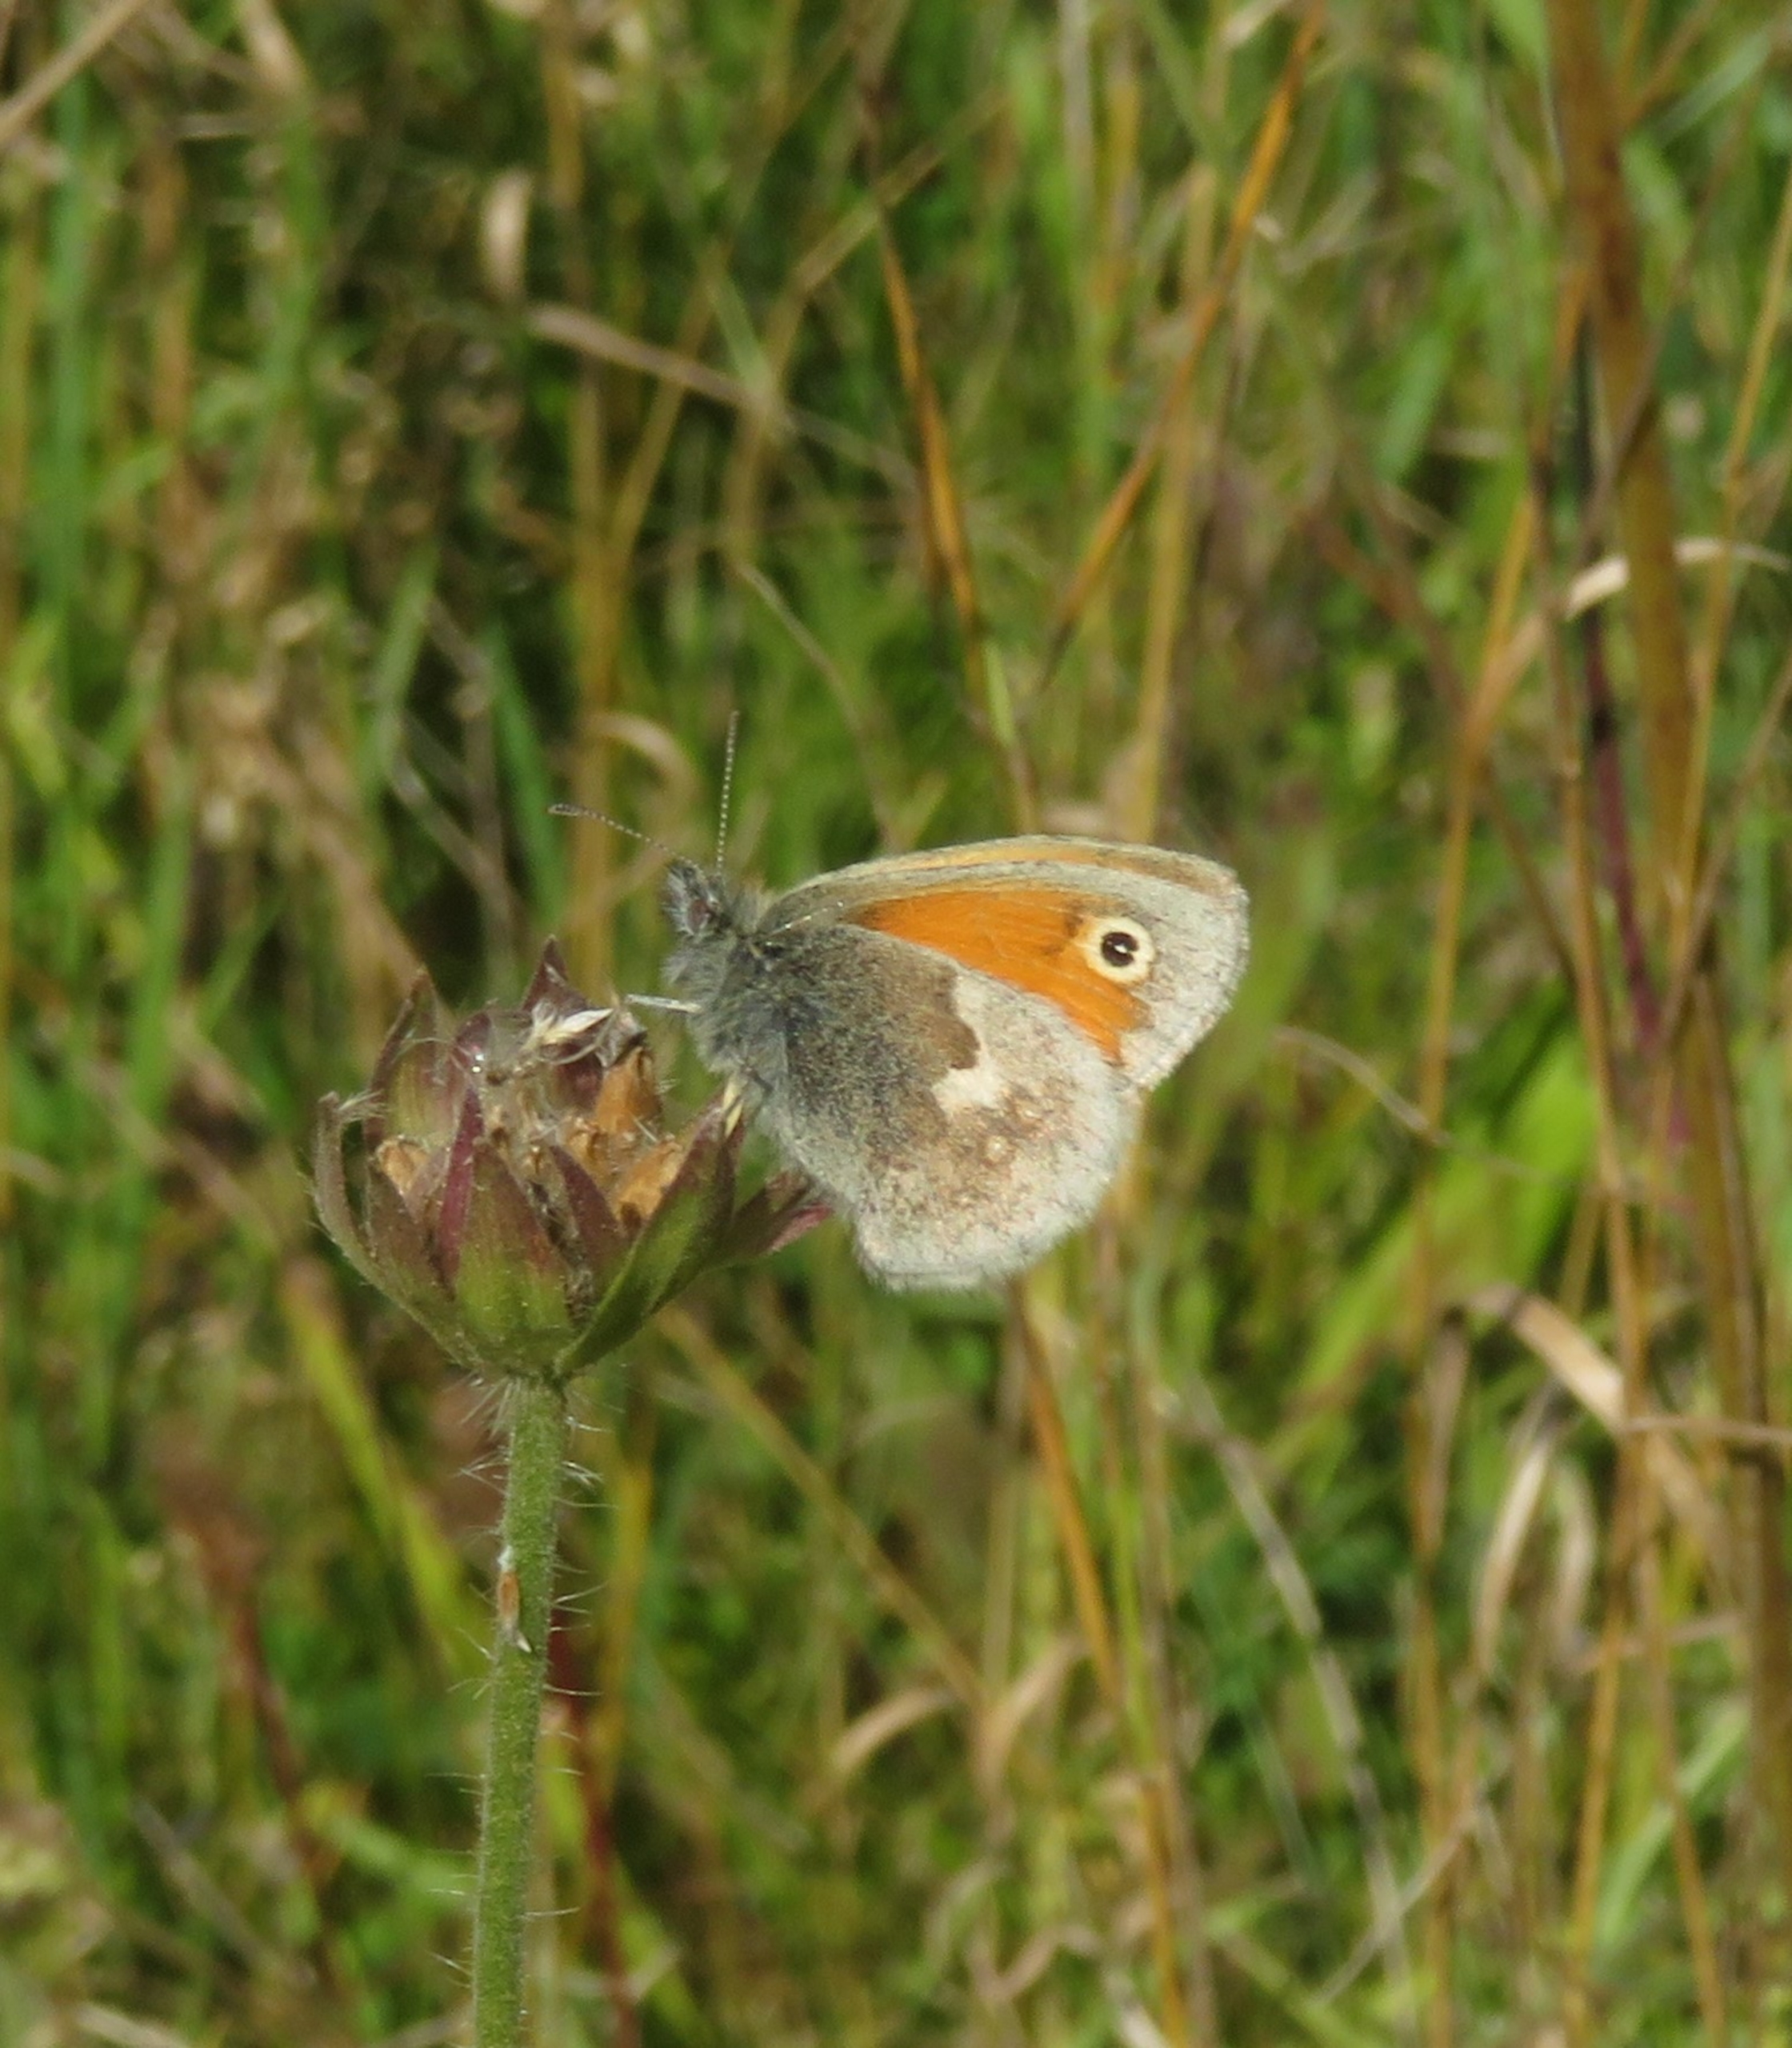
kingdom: Animalia
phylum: Arthropoda
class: Insecta
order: Lepidoptera
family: Nymphalidae
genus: Coenonympha
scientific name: Coenonympha pamphilus
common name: Okkergul randøje
